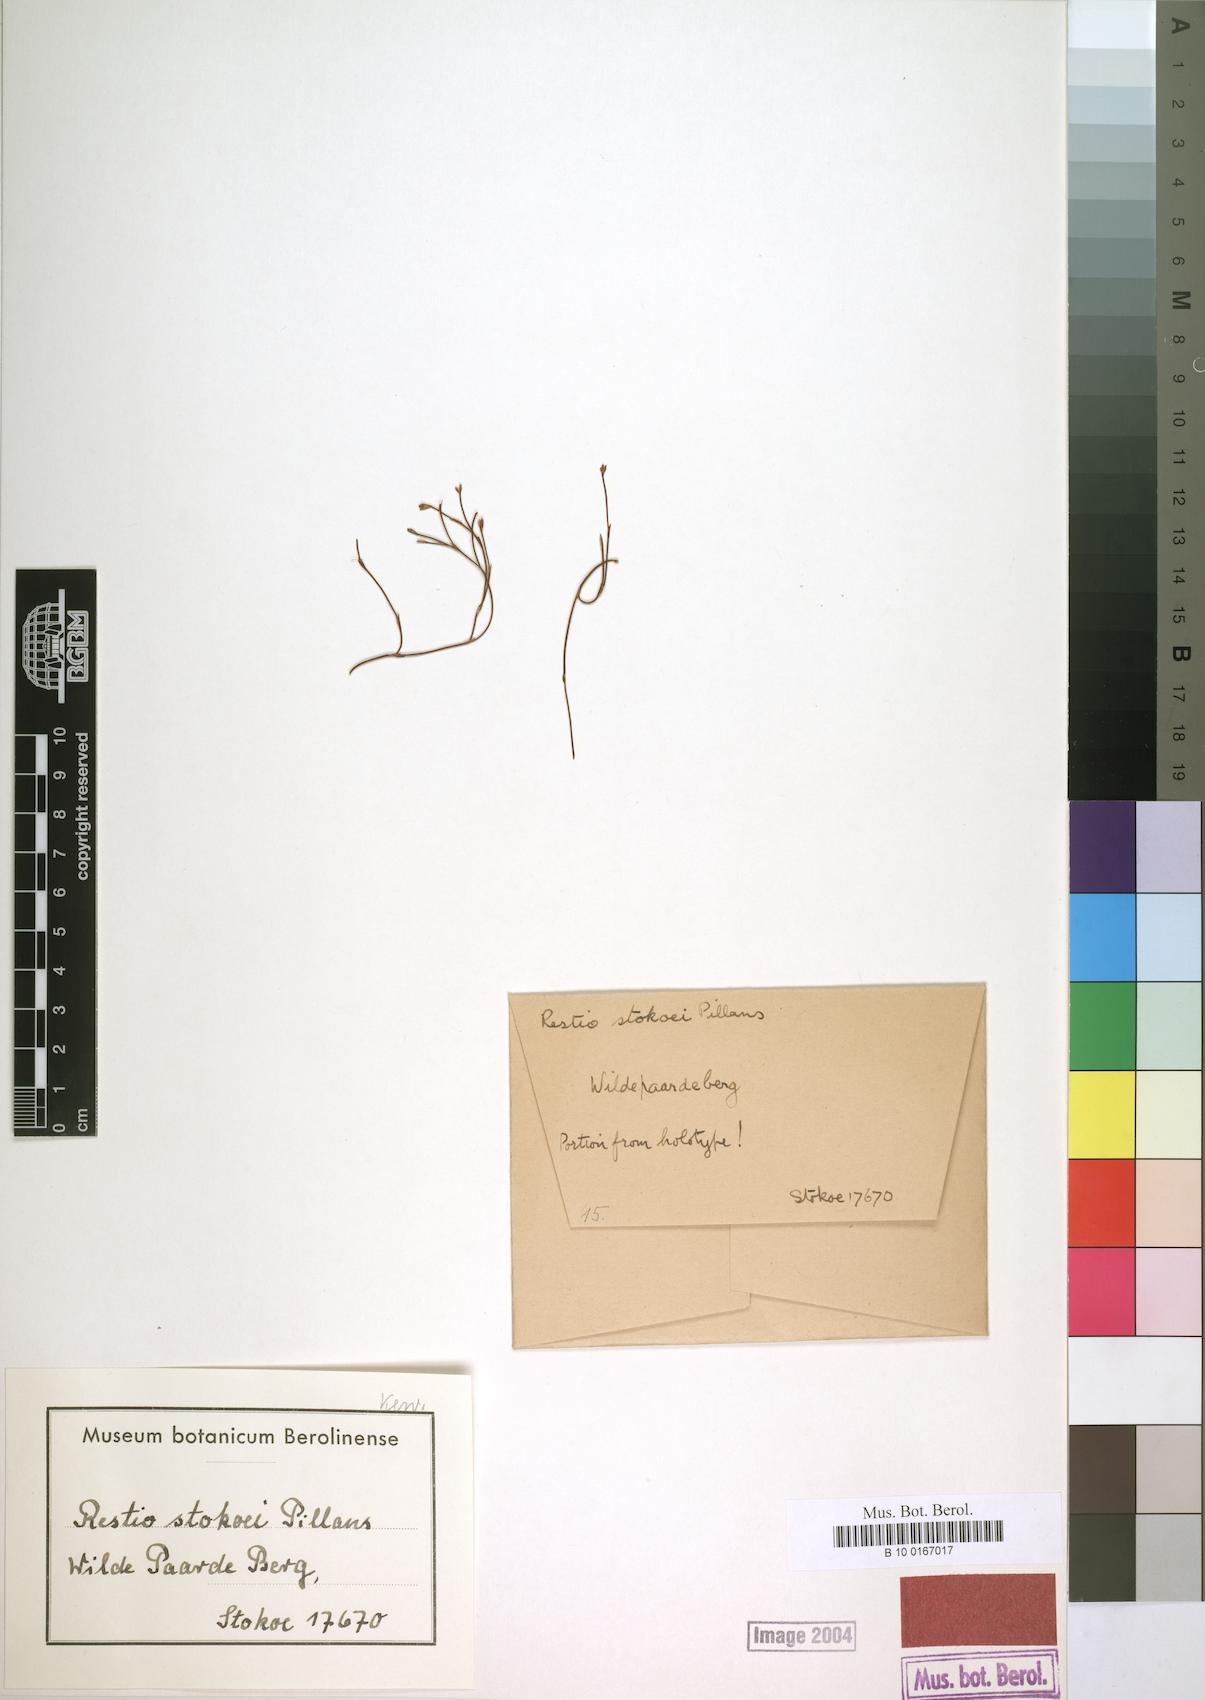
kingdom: Plantae
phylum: Tracheophyta
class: Liliopsida
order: Poales
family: Restionaceae
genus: Restio
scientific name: Restio stokoei
